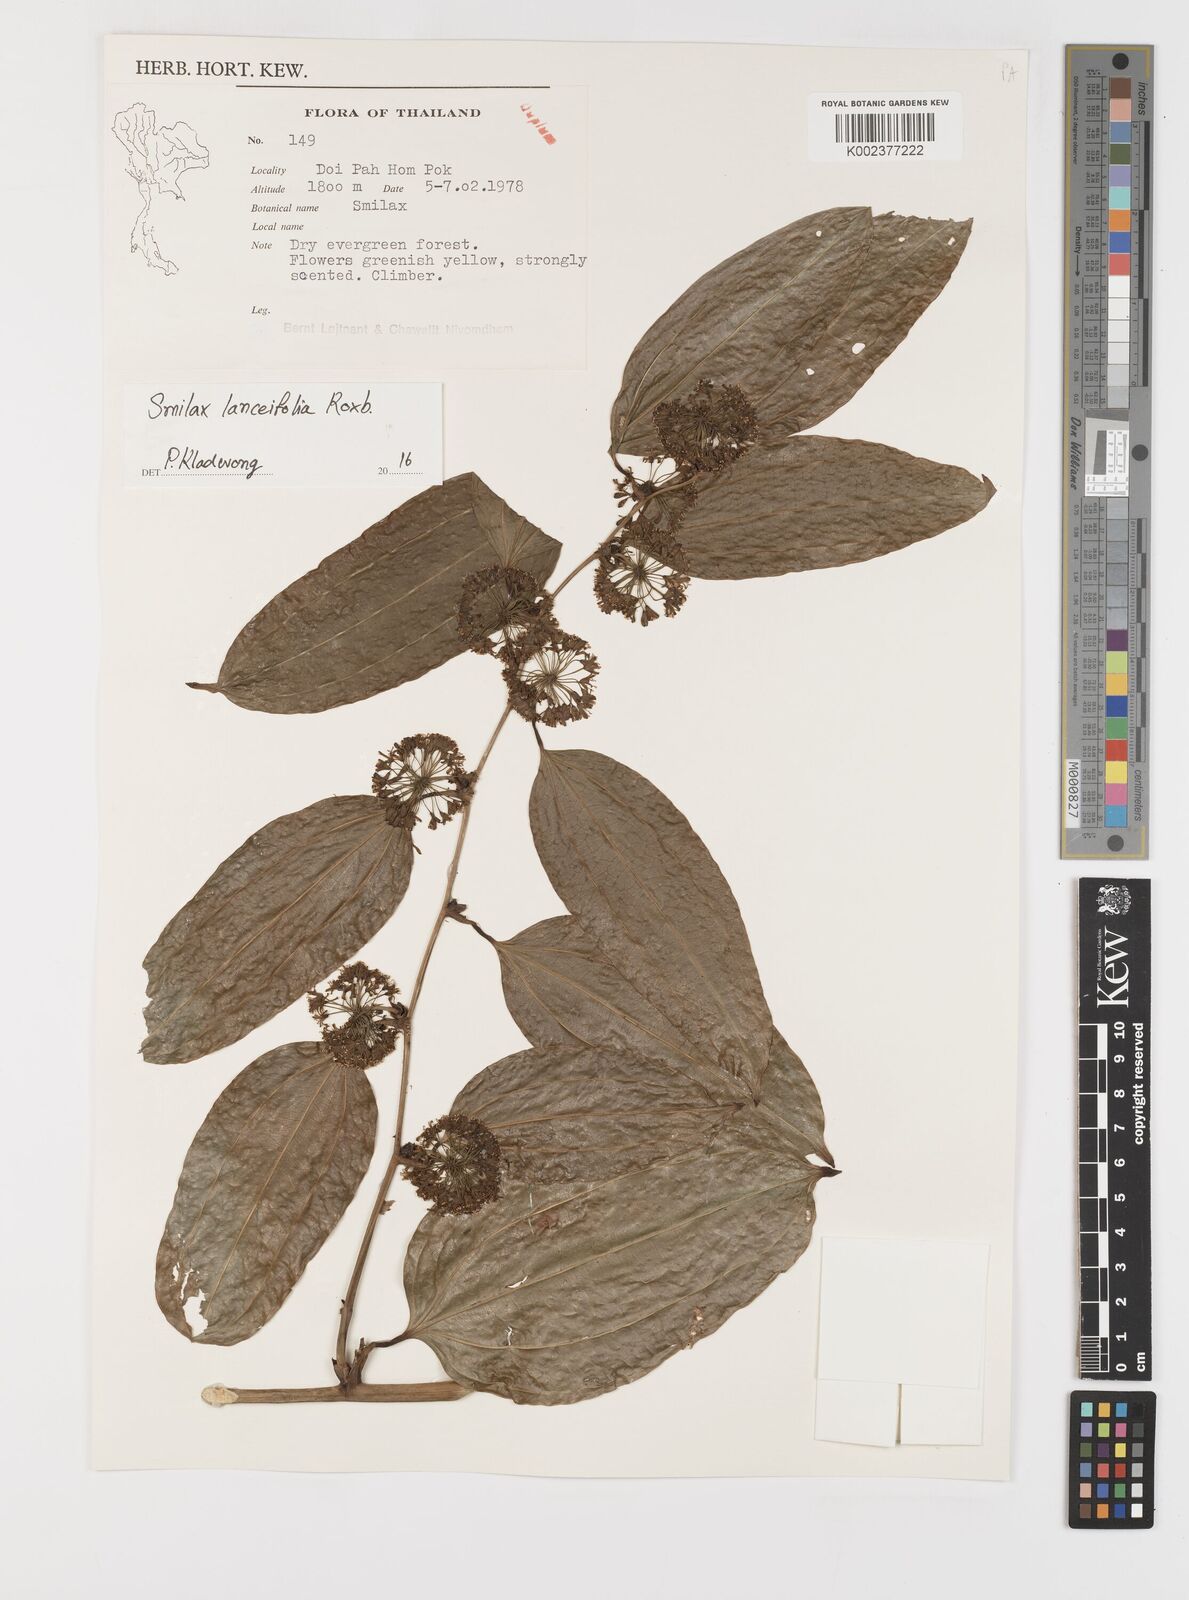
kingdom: Plantae
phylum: Tracheophyta
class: Liliopsida
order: Liliales
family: Smilacaceae
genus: Smilax
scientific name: Smilax lanceifolia
